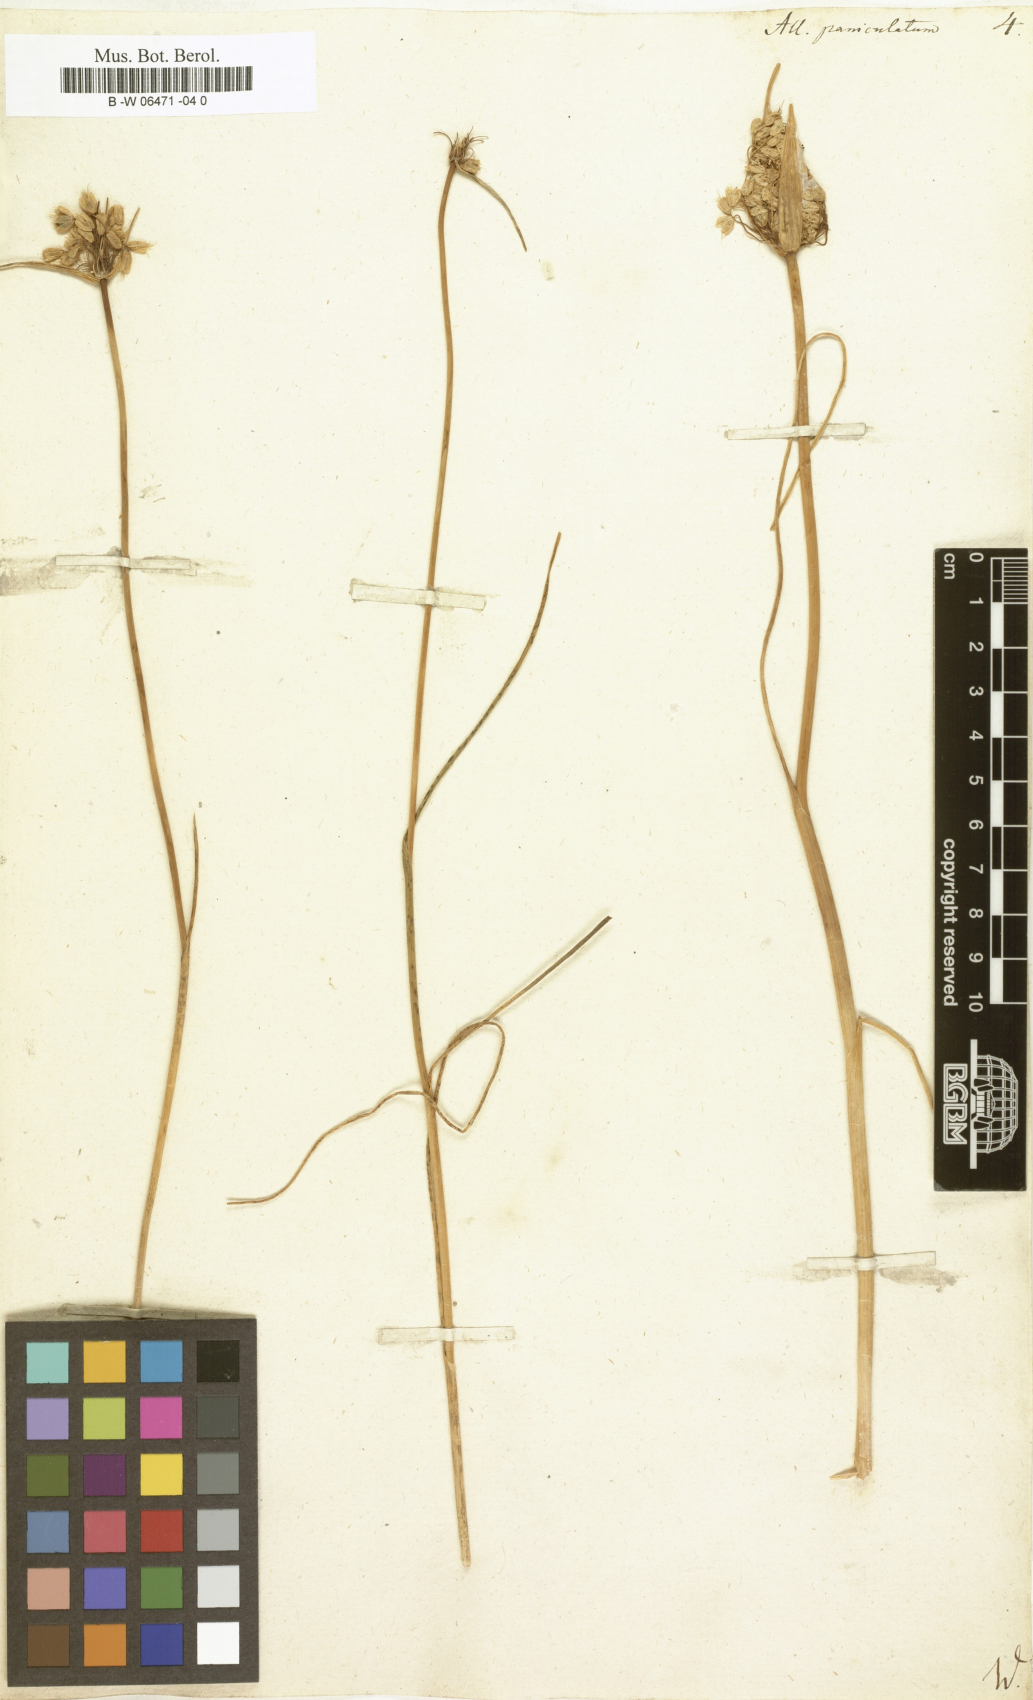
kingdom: Plantae
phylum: Tracheophyta
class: Liliopsida
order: Asparagales
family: Amaryllidaceae
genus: Allium
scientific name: Allium paniculatum
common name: Pale garlic
